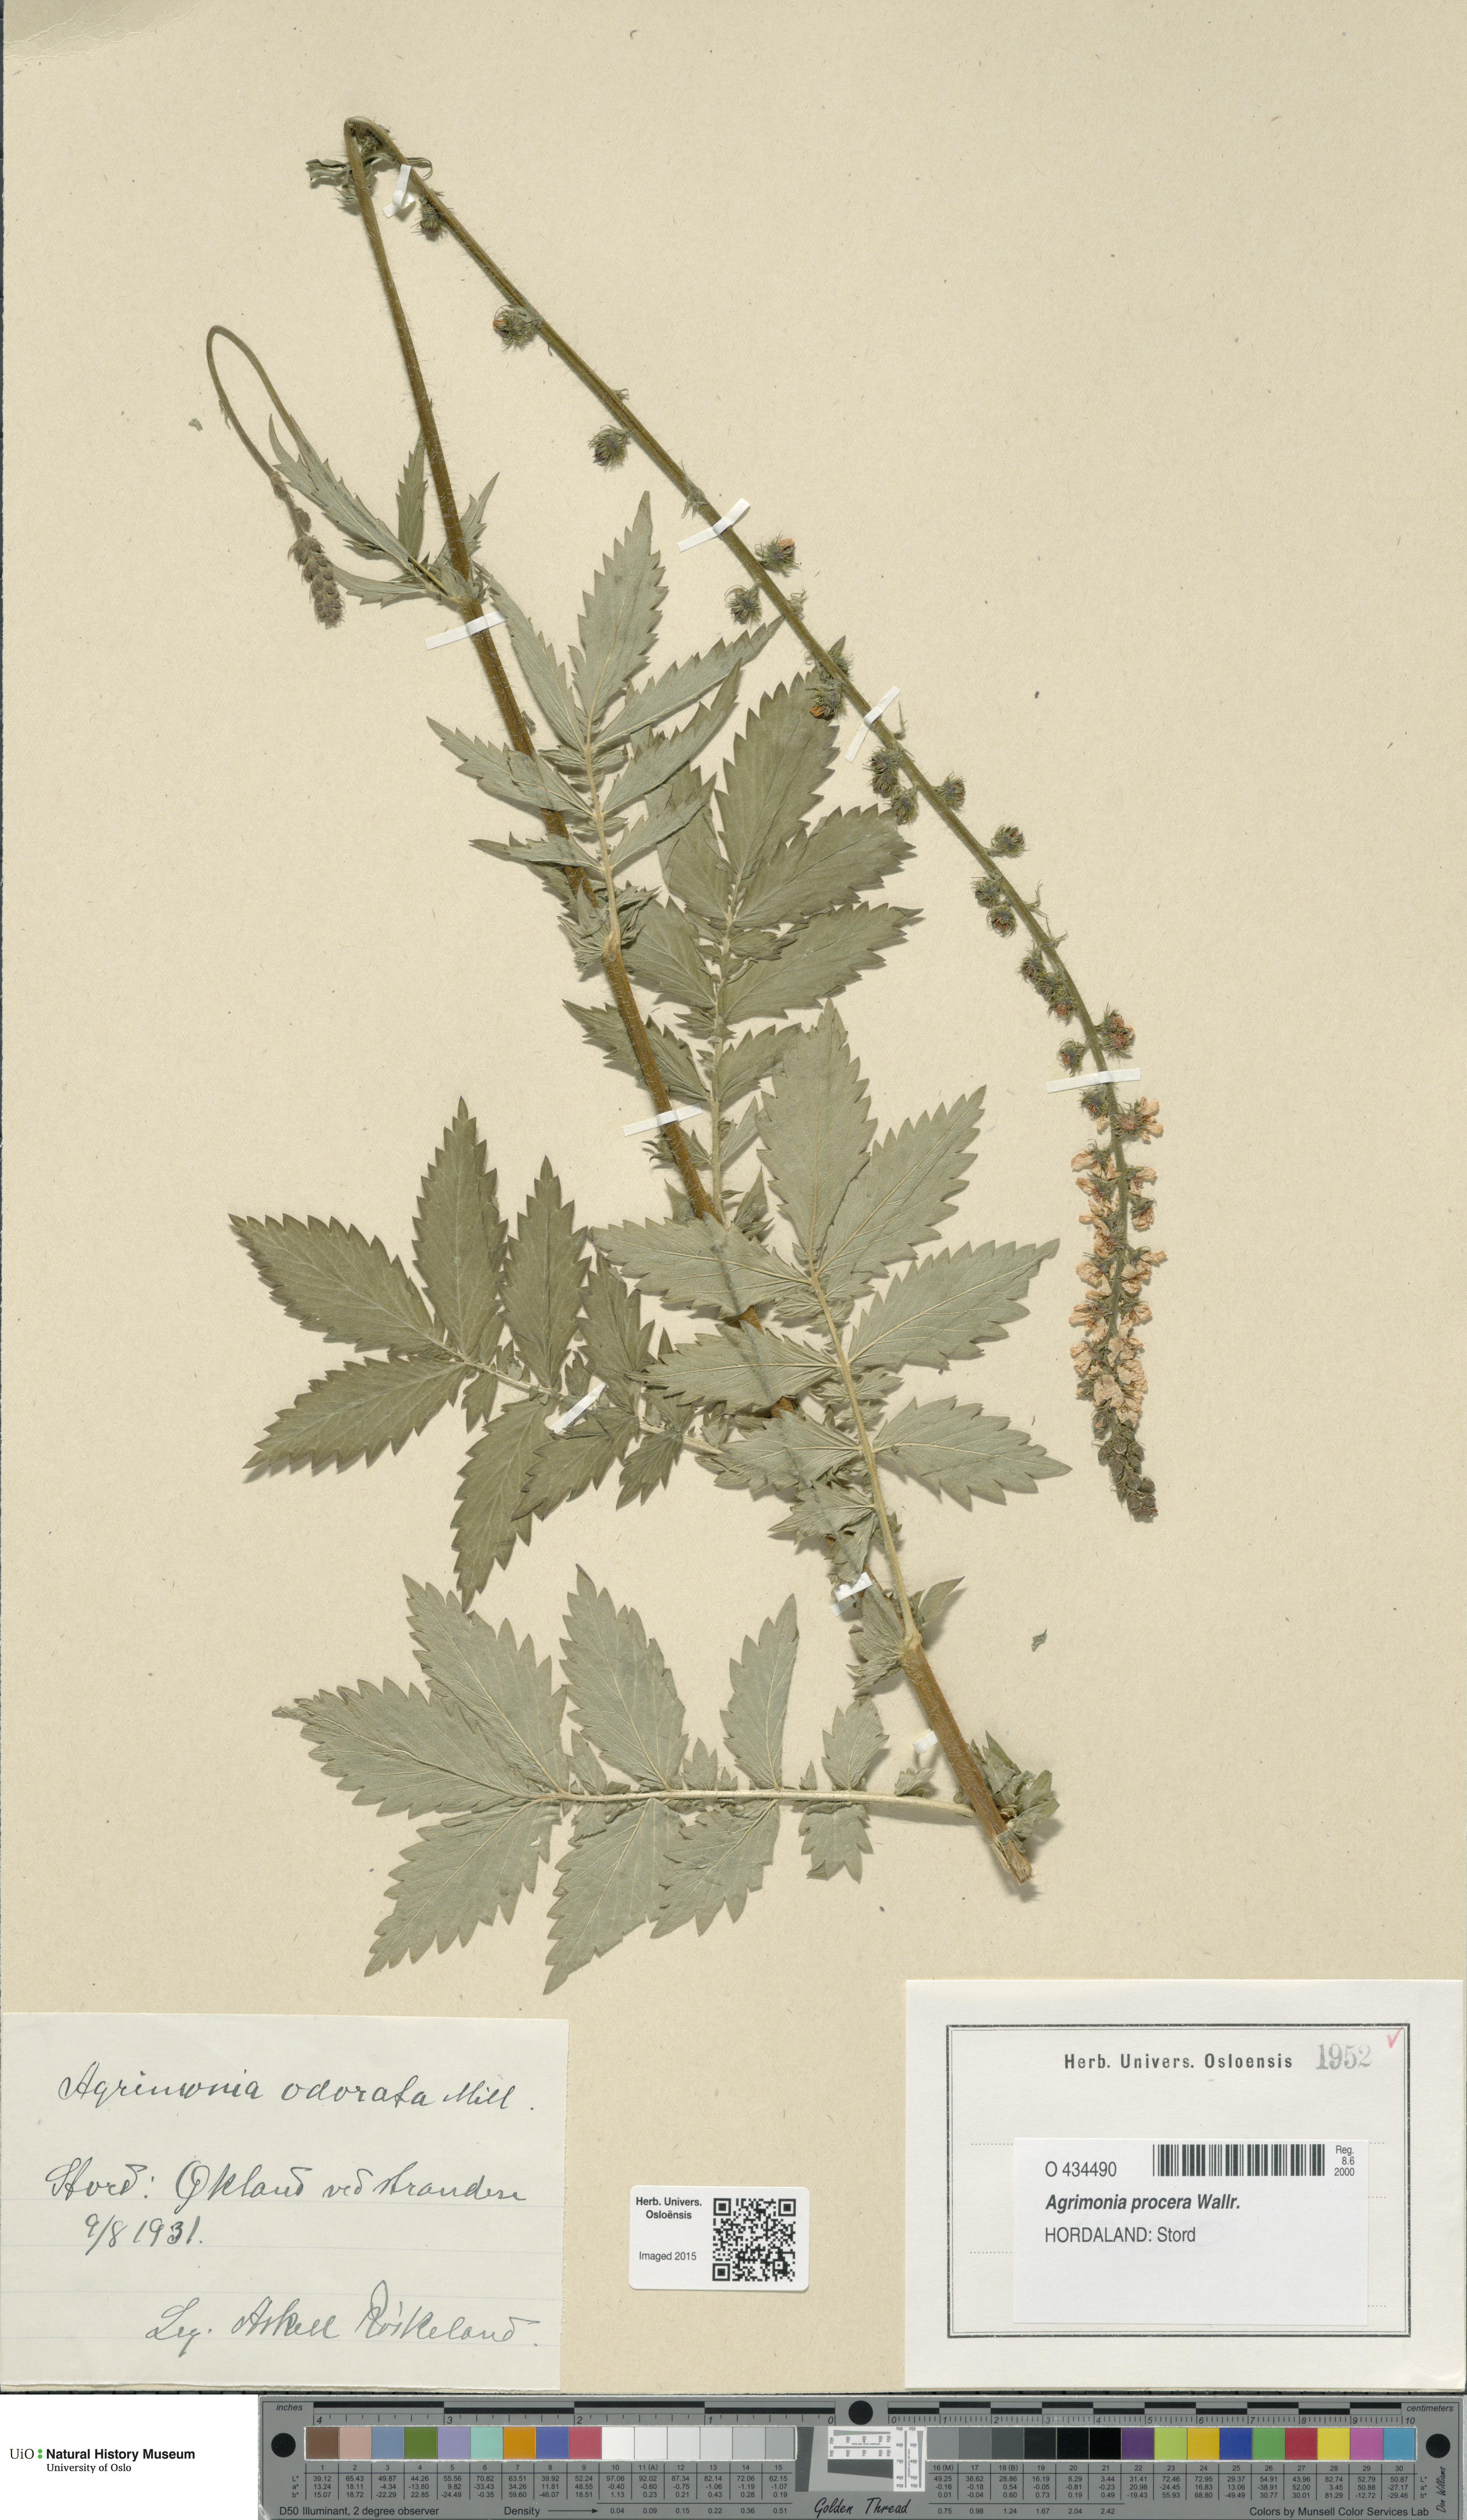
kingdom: Plantae
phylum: Tracheophyta
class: Magnoliopsida
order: Rosales
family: Rosaceae
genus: Agrimonia
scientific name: Agrimonia procera
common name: Fragrant agrimony
